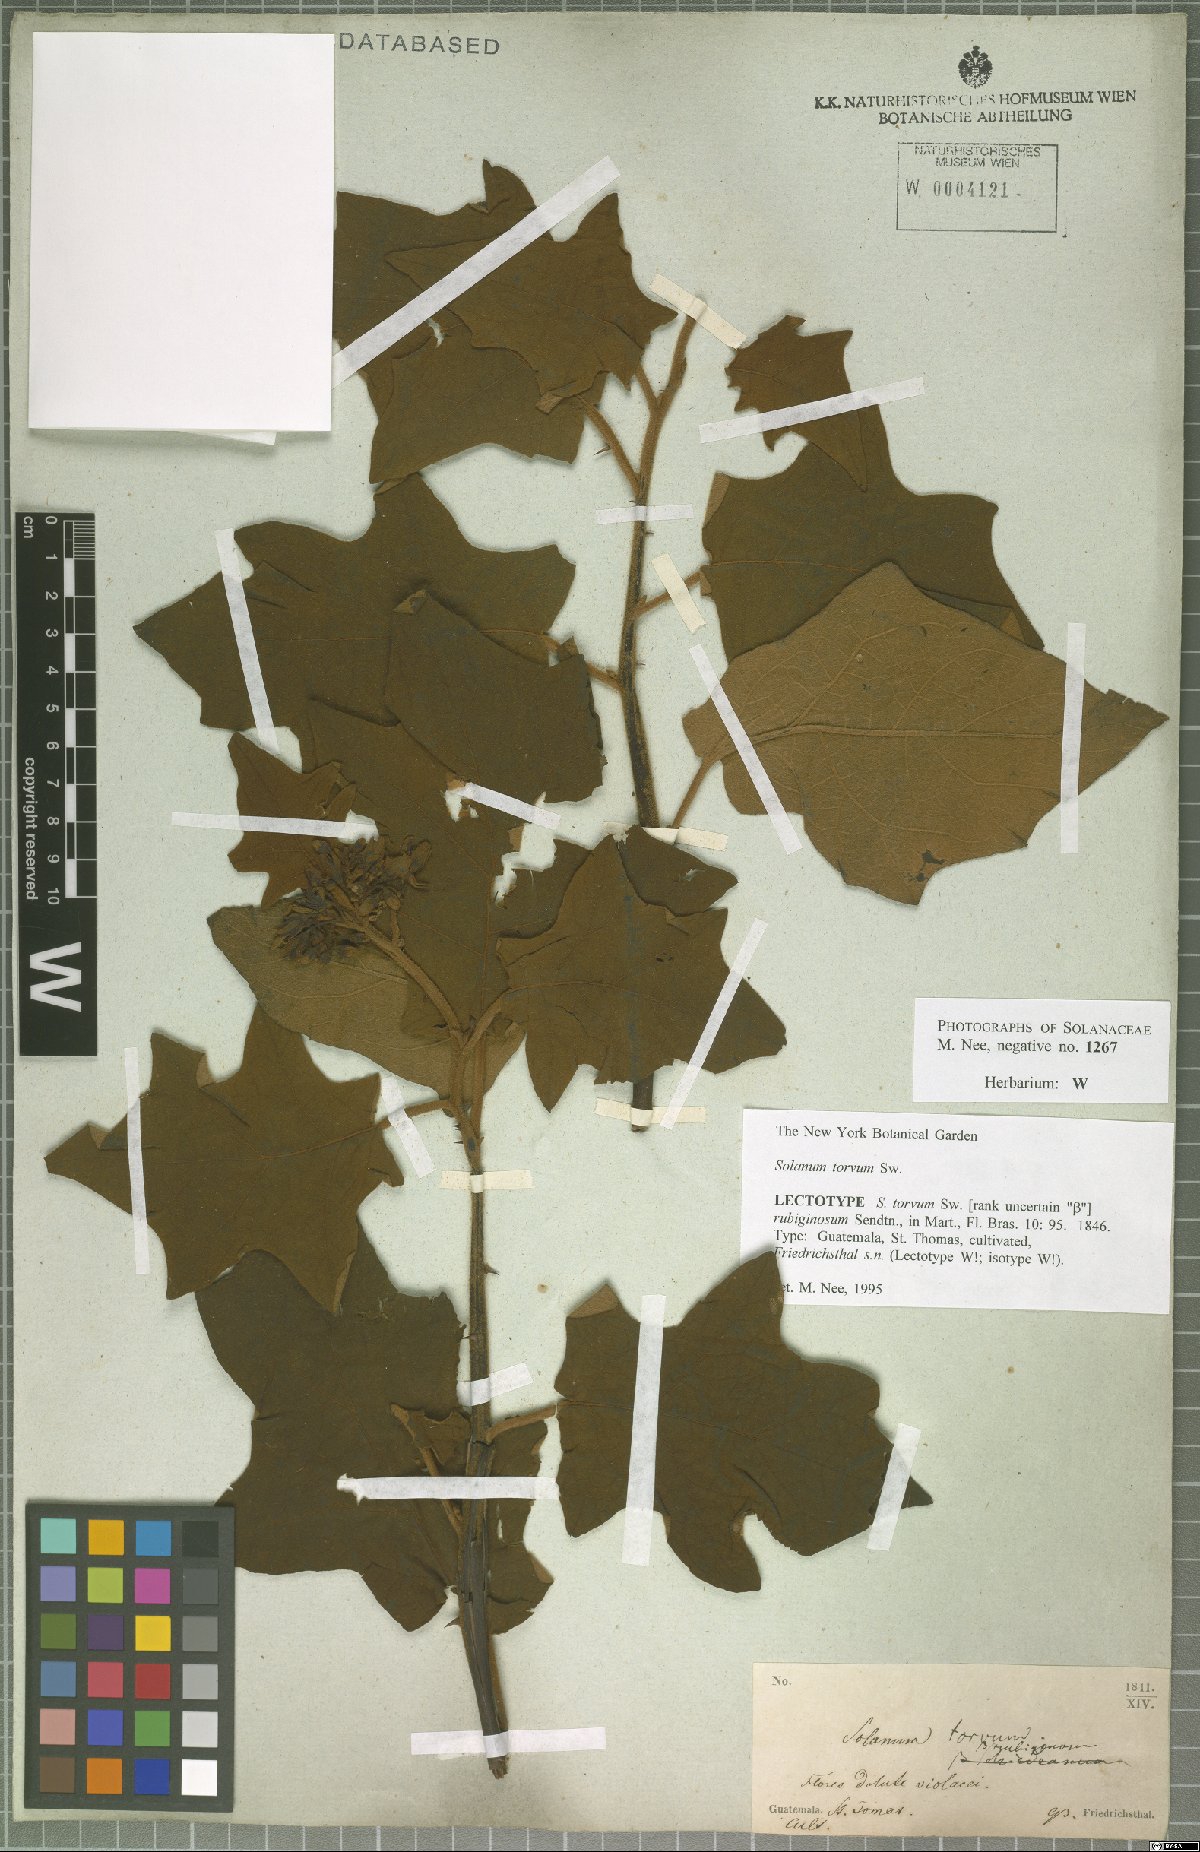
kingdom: Plantae
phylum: Tracheophyta
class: Magnoliopsida
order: Solanales
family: Solanaceae
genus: Solanum
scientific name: Solanum torvum
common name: Turkey berry
